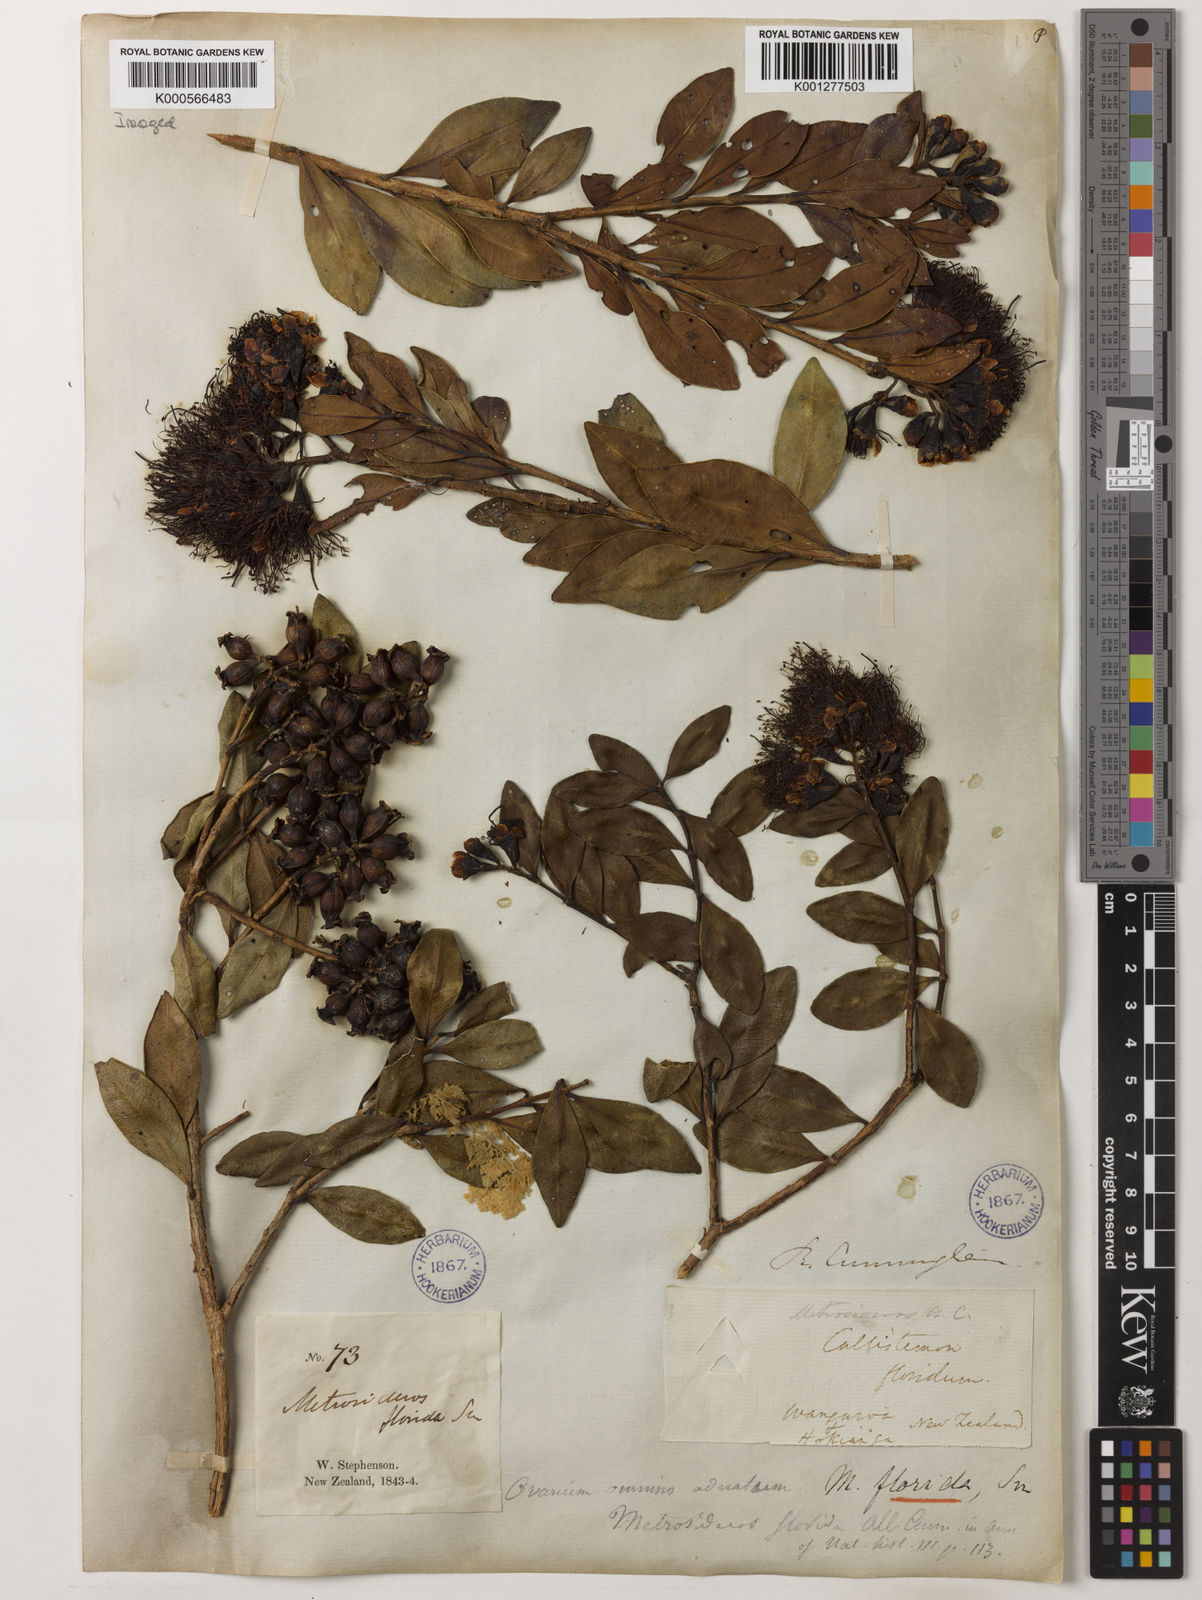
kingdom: Plantae
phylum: Tracheophyta
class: Magnoliopsida
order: Myrtales
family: Myrtaceae
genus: Metrosideros
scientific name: Metrosideros fulgens
